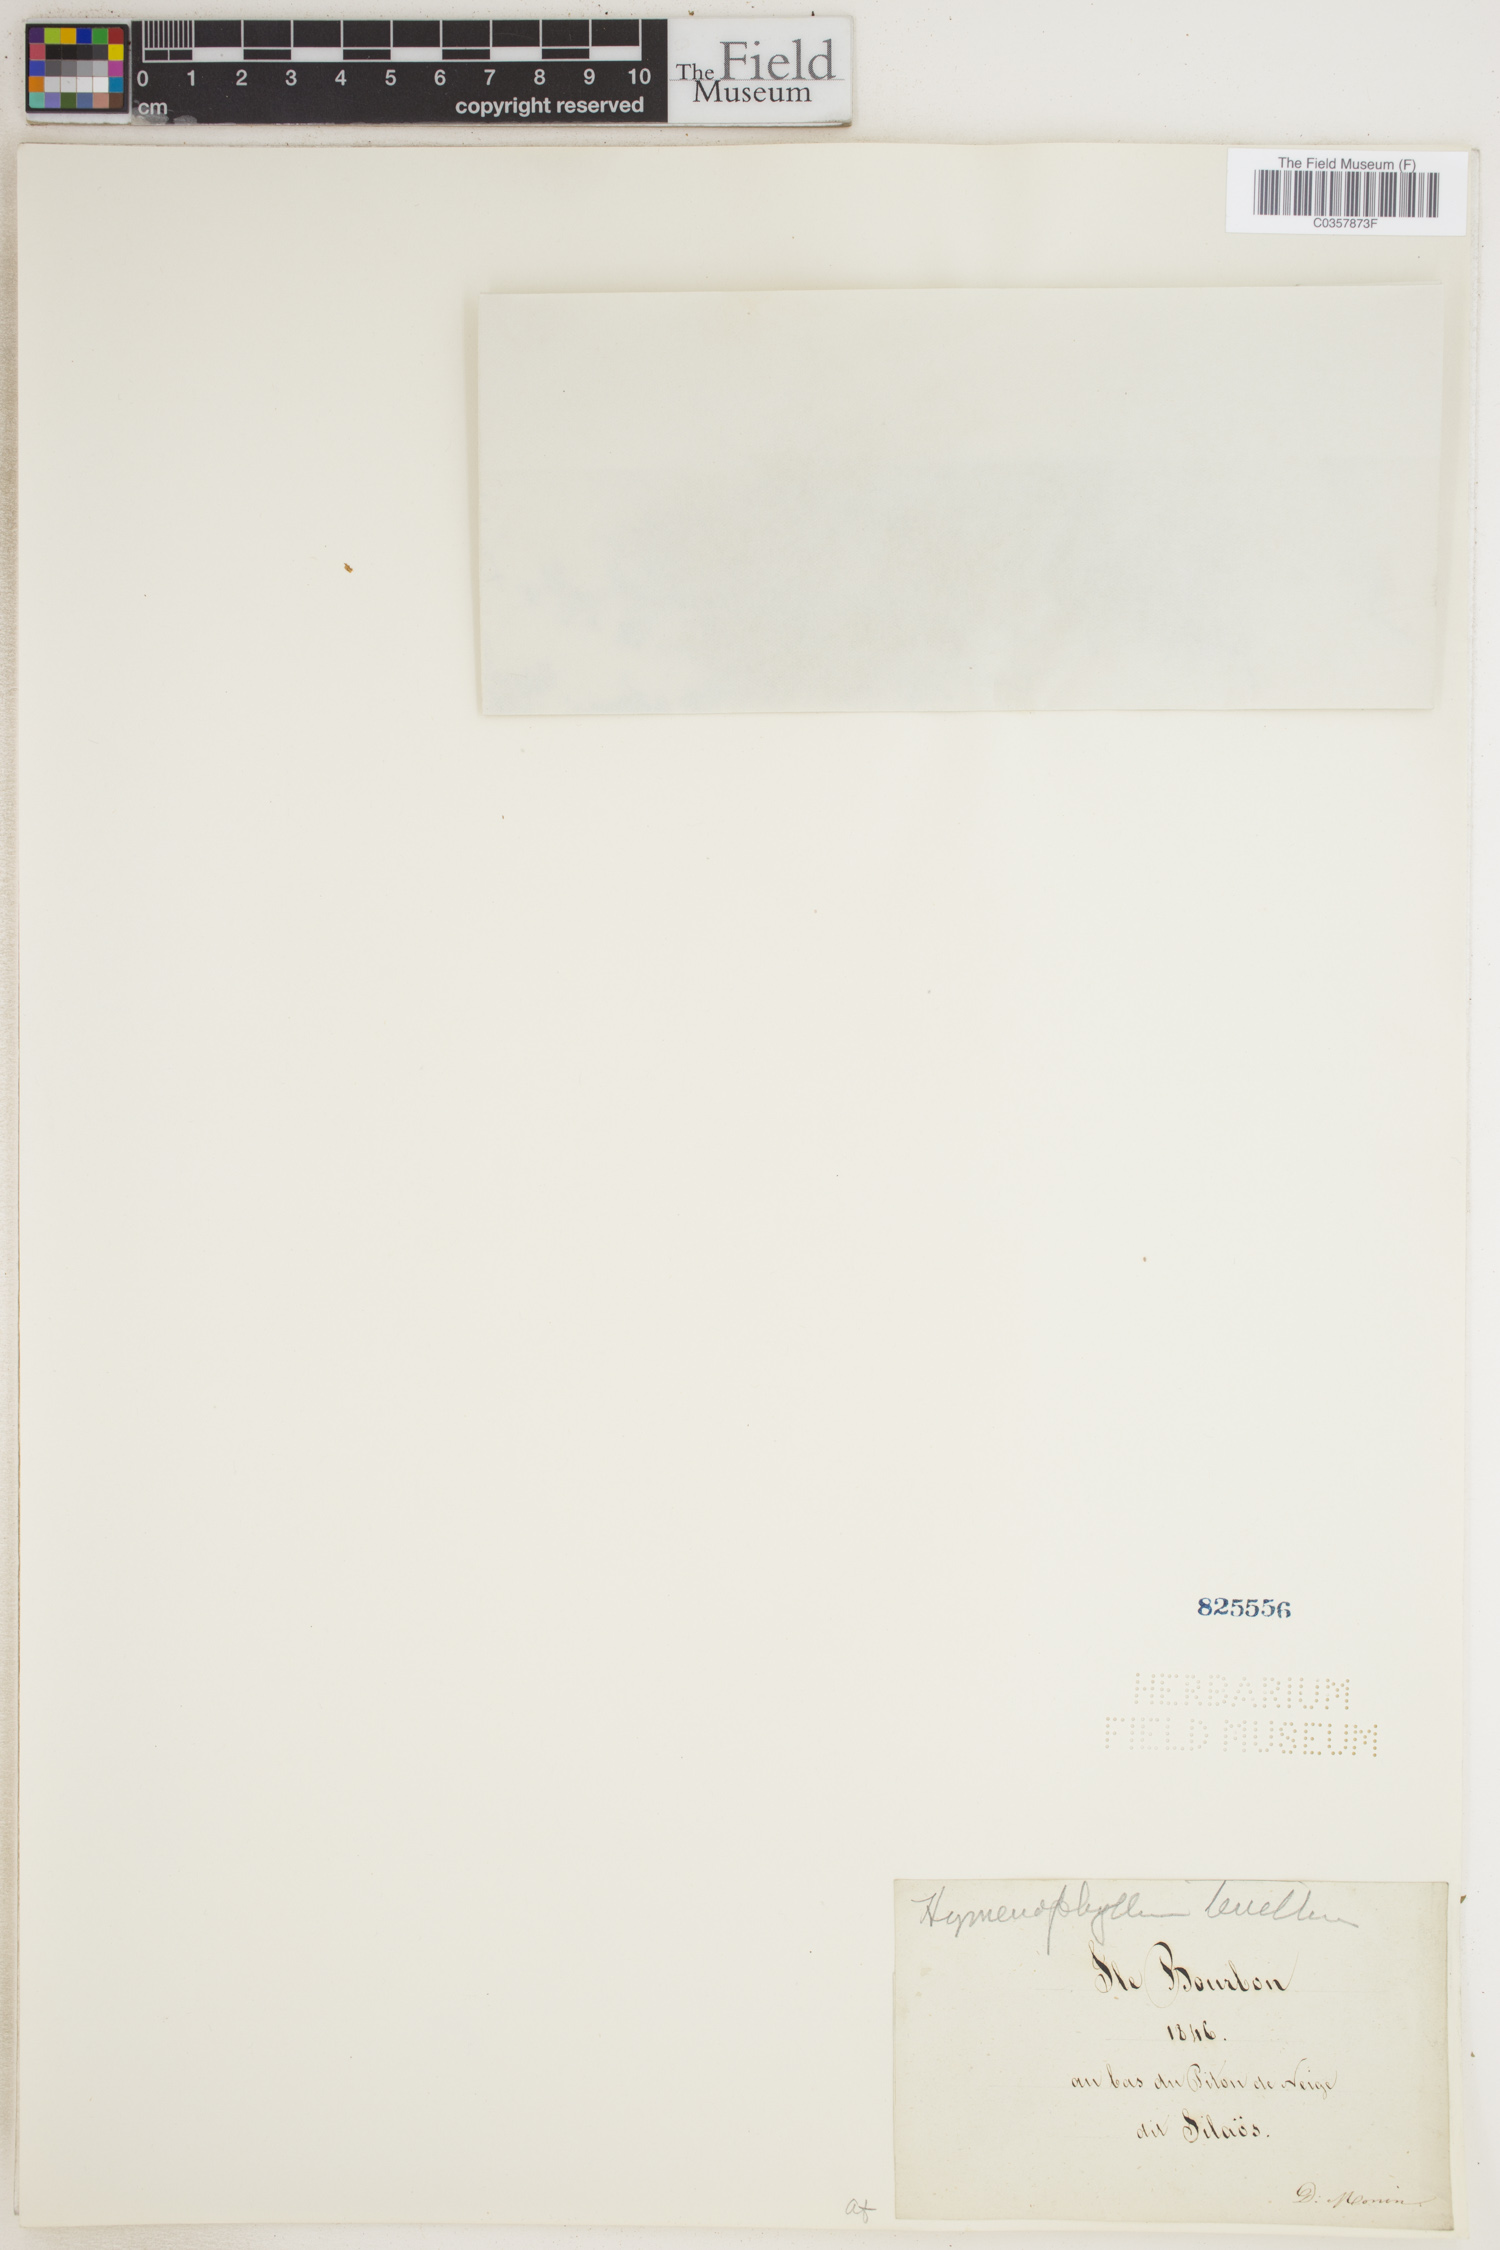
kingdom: Plantae
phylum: Tracheophyta
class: Polypodiopsida
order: Hymenophyllales
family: Hymenophyllaceae
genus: Hymenophyllum
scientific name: Hymenophyllum fumarioides
